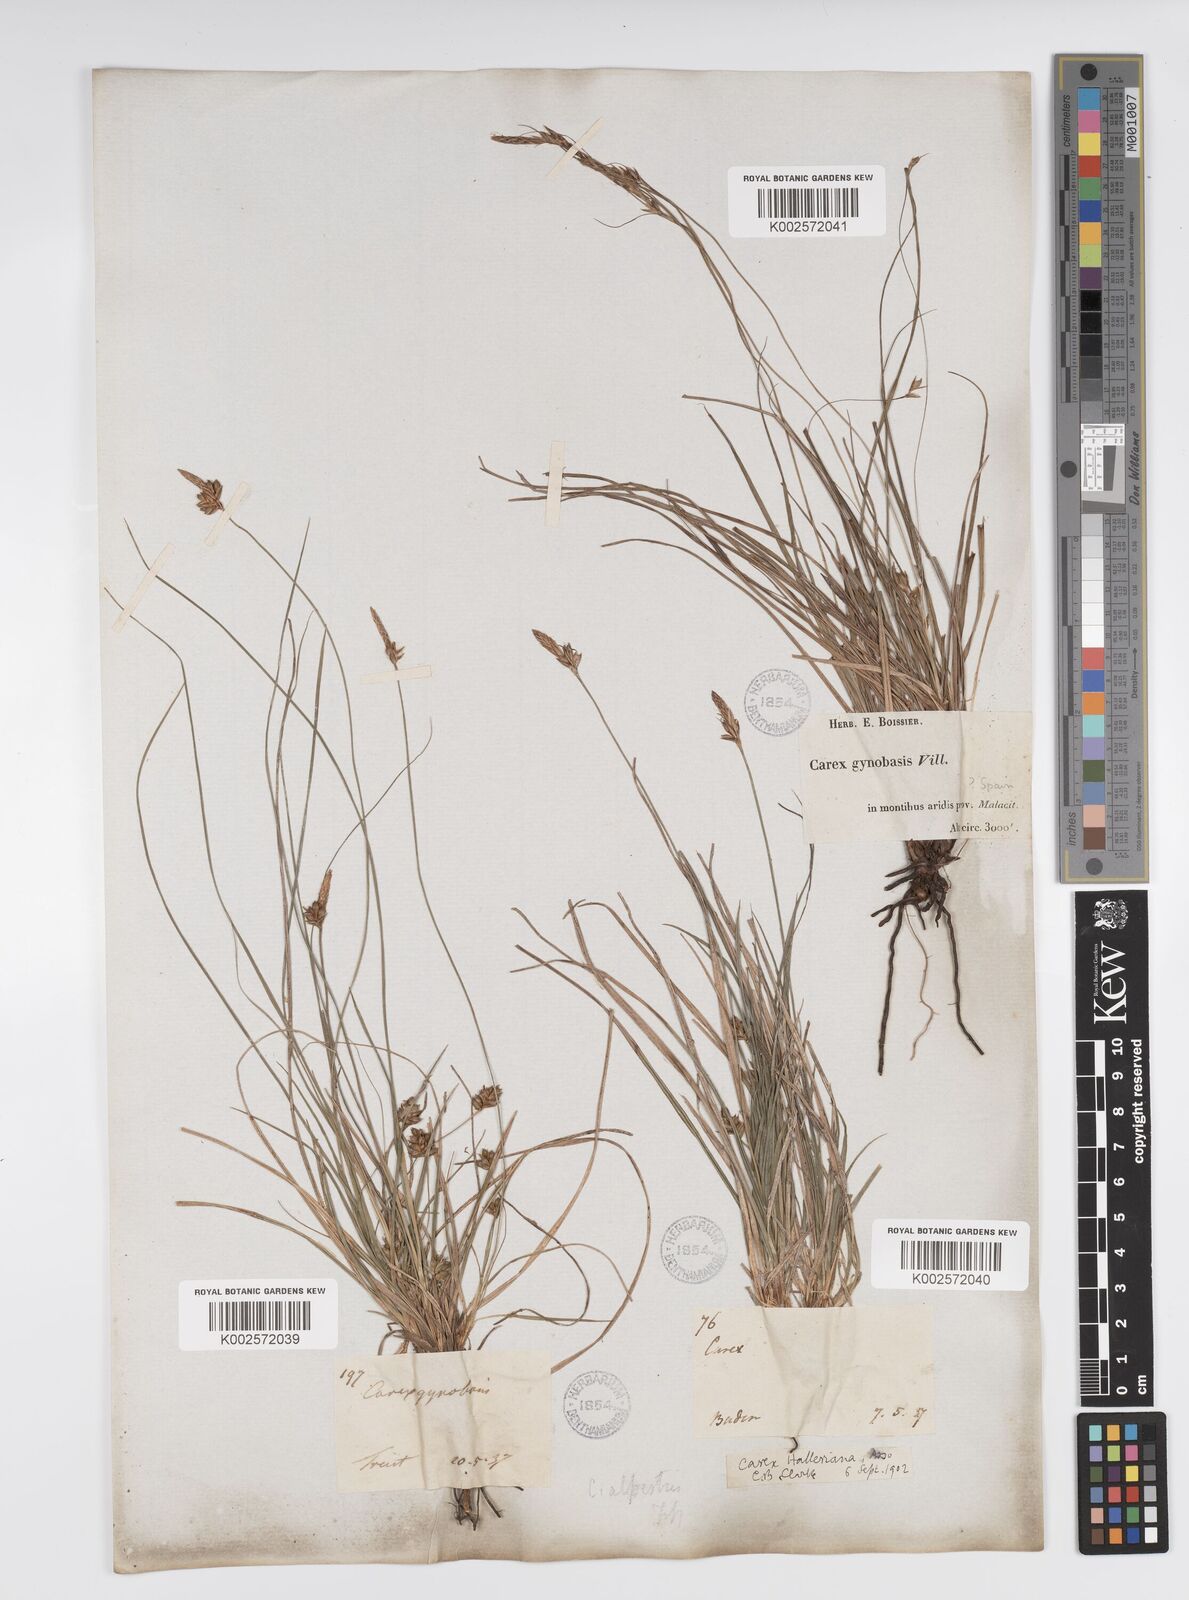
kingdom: Plantae
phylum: Tracheophyta
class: Liliopsida
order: Poales
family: Cyperaceae
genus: Carex
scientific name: Carex halleriana
